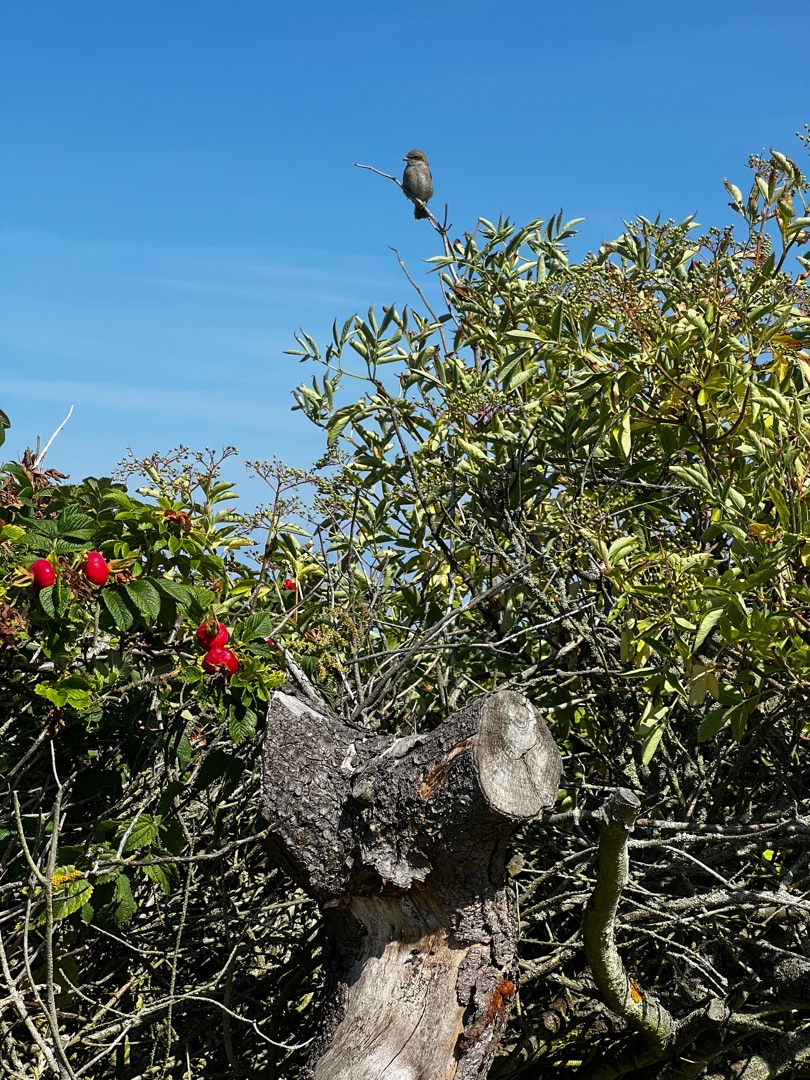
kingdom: Animalia
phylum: Chordata
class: Aves
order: Passeriformes
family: Laniidae
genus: Lanius
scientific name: Lanius collurio
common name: Rødrygget tornskade
